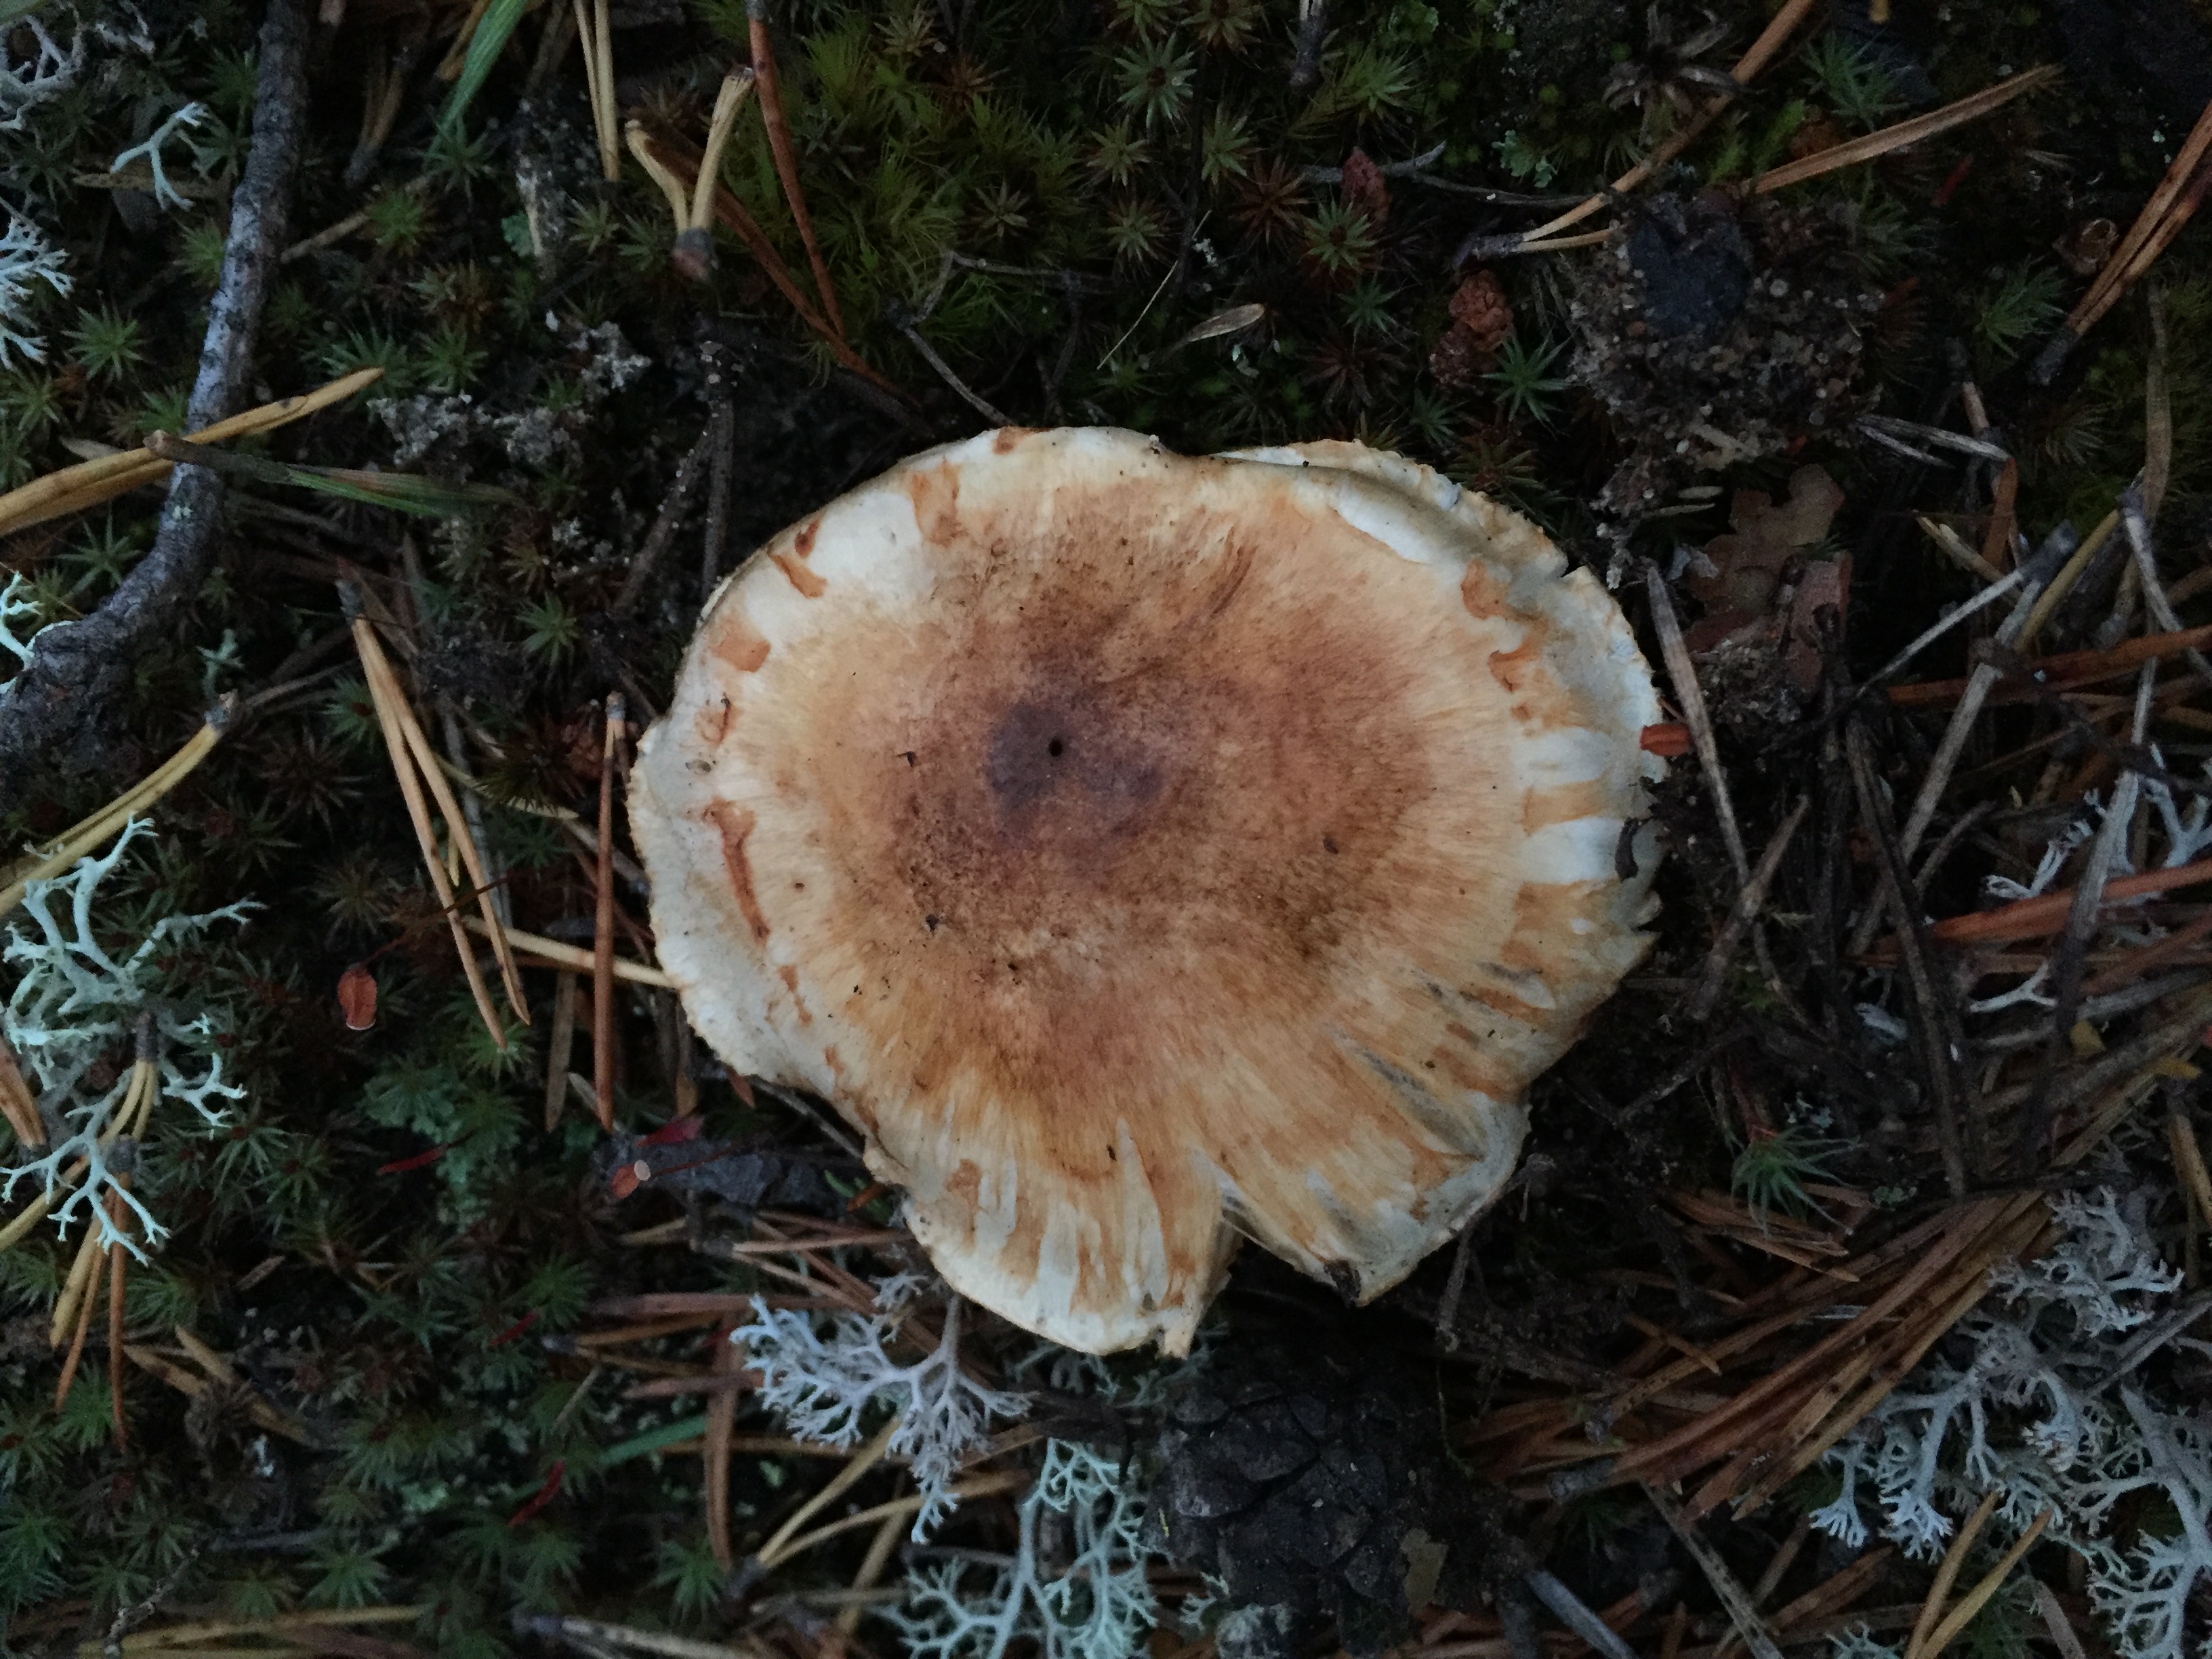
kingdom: Fungi
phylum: Basidiomycota
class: Agaricomycetes
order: Agaricales
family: Tricholomataceae
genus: Tricholoma
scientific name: Tricholoma focale
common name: Booted knight
